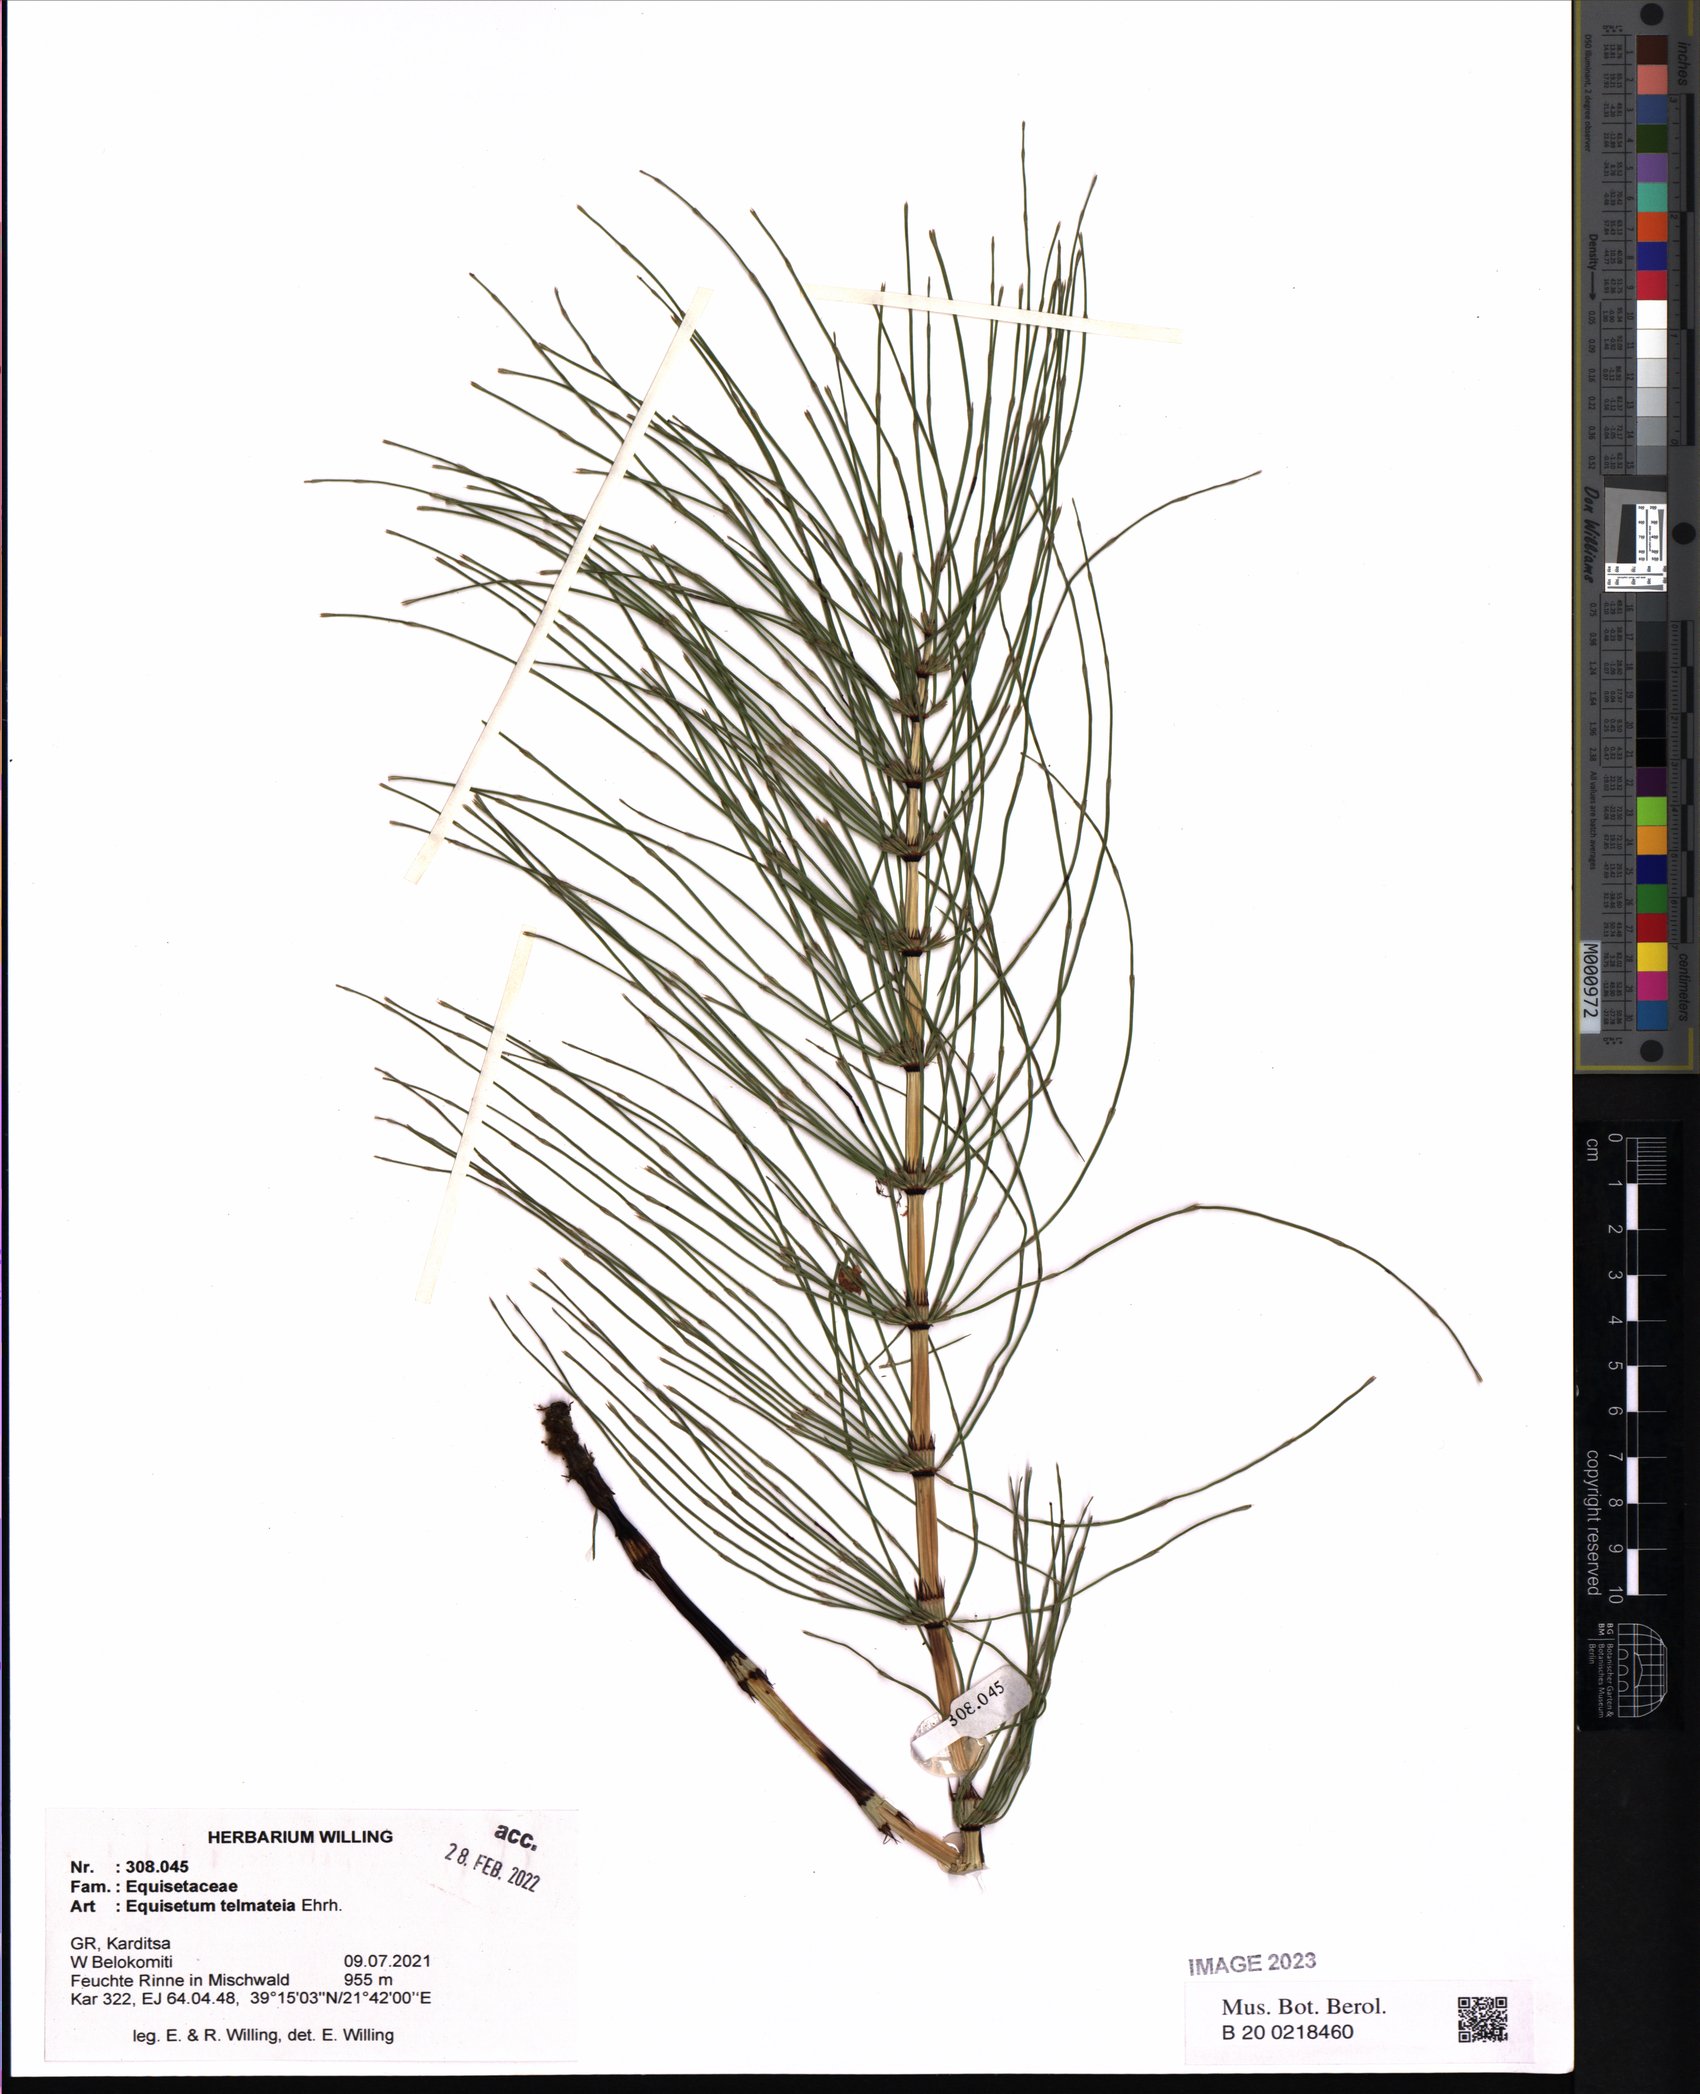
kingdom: Plantae
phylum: Tracheophyta
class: Polypodiopsida
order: Equisetales
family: Equisetaceae
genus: Equisetum
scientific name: Equisetum telmateia
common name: Great horsetail
